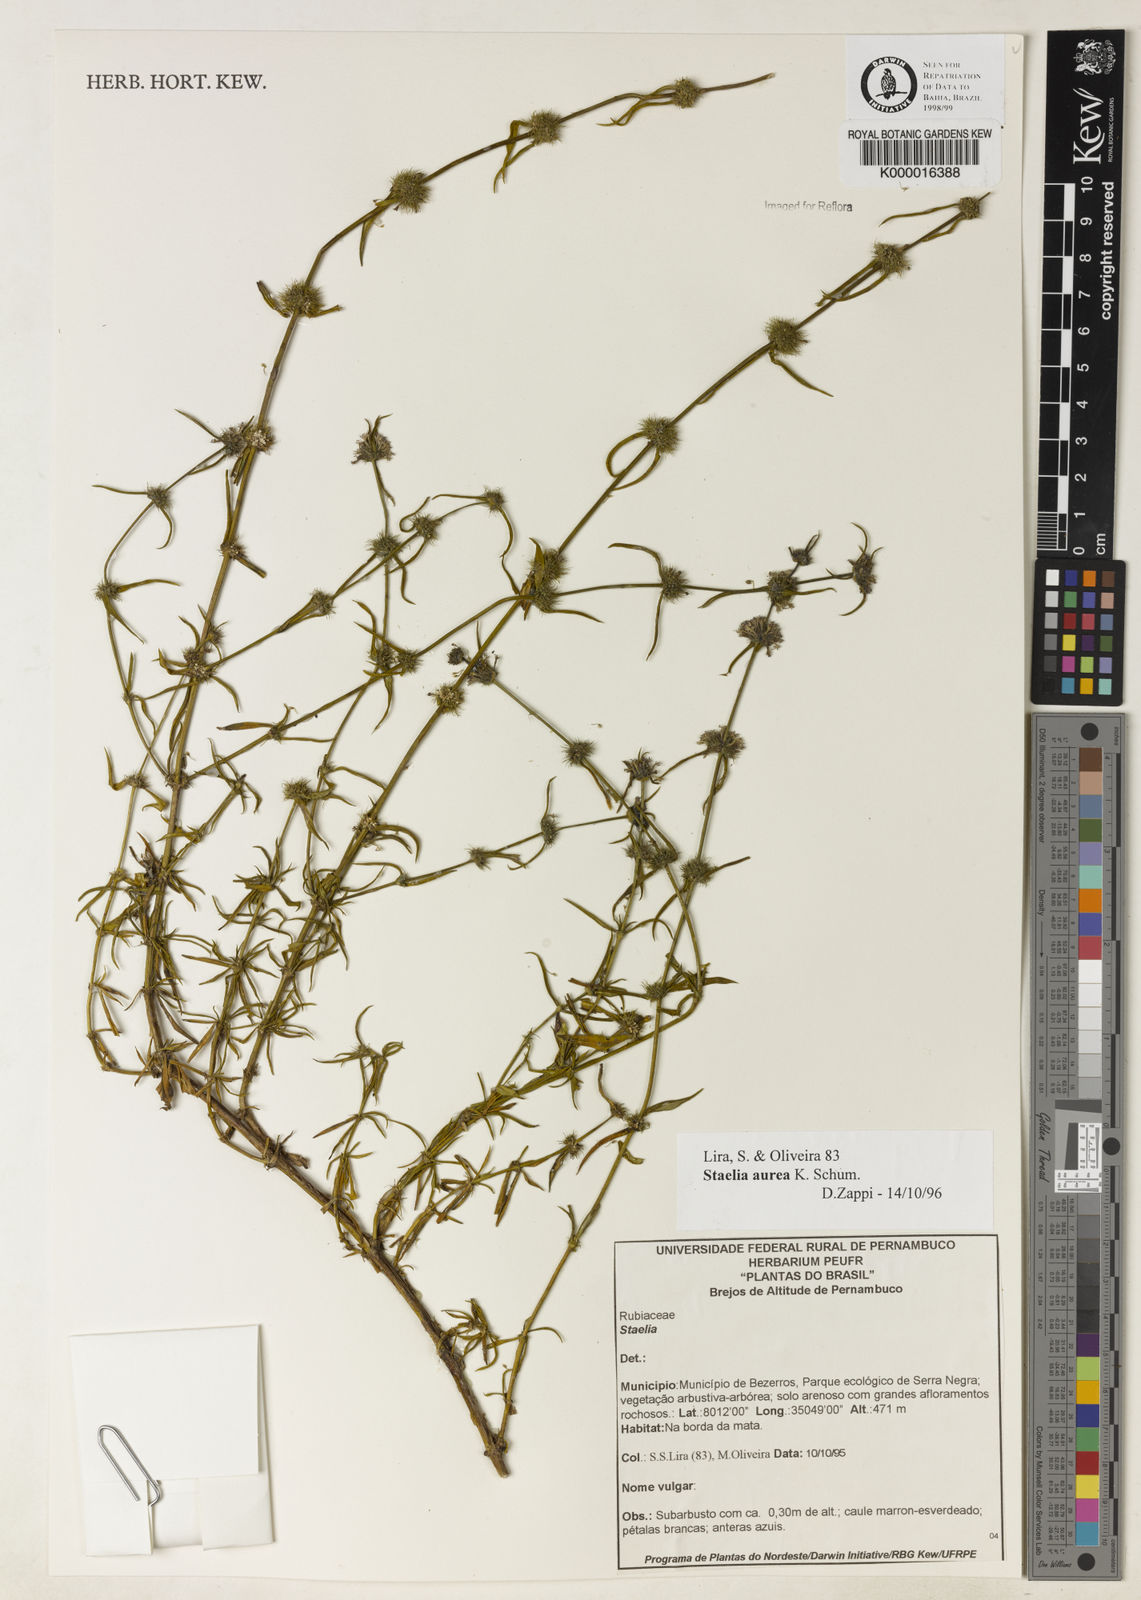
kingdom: Plantae
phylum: Tracheophyta
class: Magnoliopsida
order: Gentianales
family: Rubiaceae
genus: Staelia
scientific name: Staelia aurea
